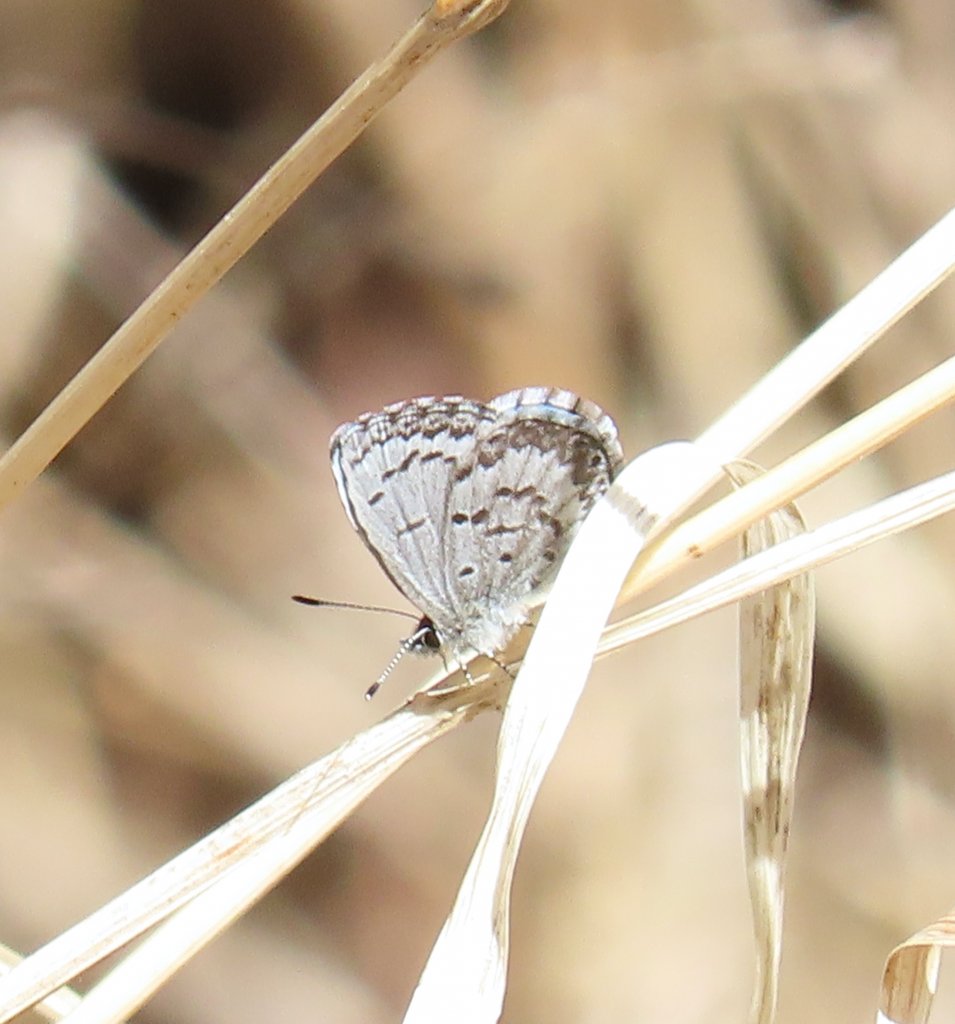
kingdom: Animalia
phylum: Arthropoda
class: Insecta
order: Lepidoptera
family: Lycaenidae
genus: Celastrina
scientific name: Celastrina lucia
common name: Northern Spring Azure
